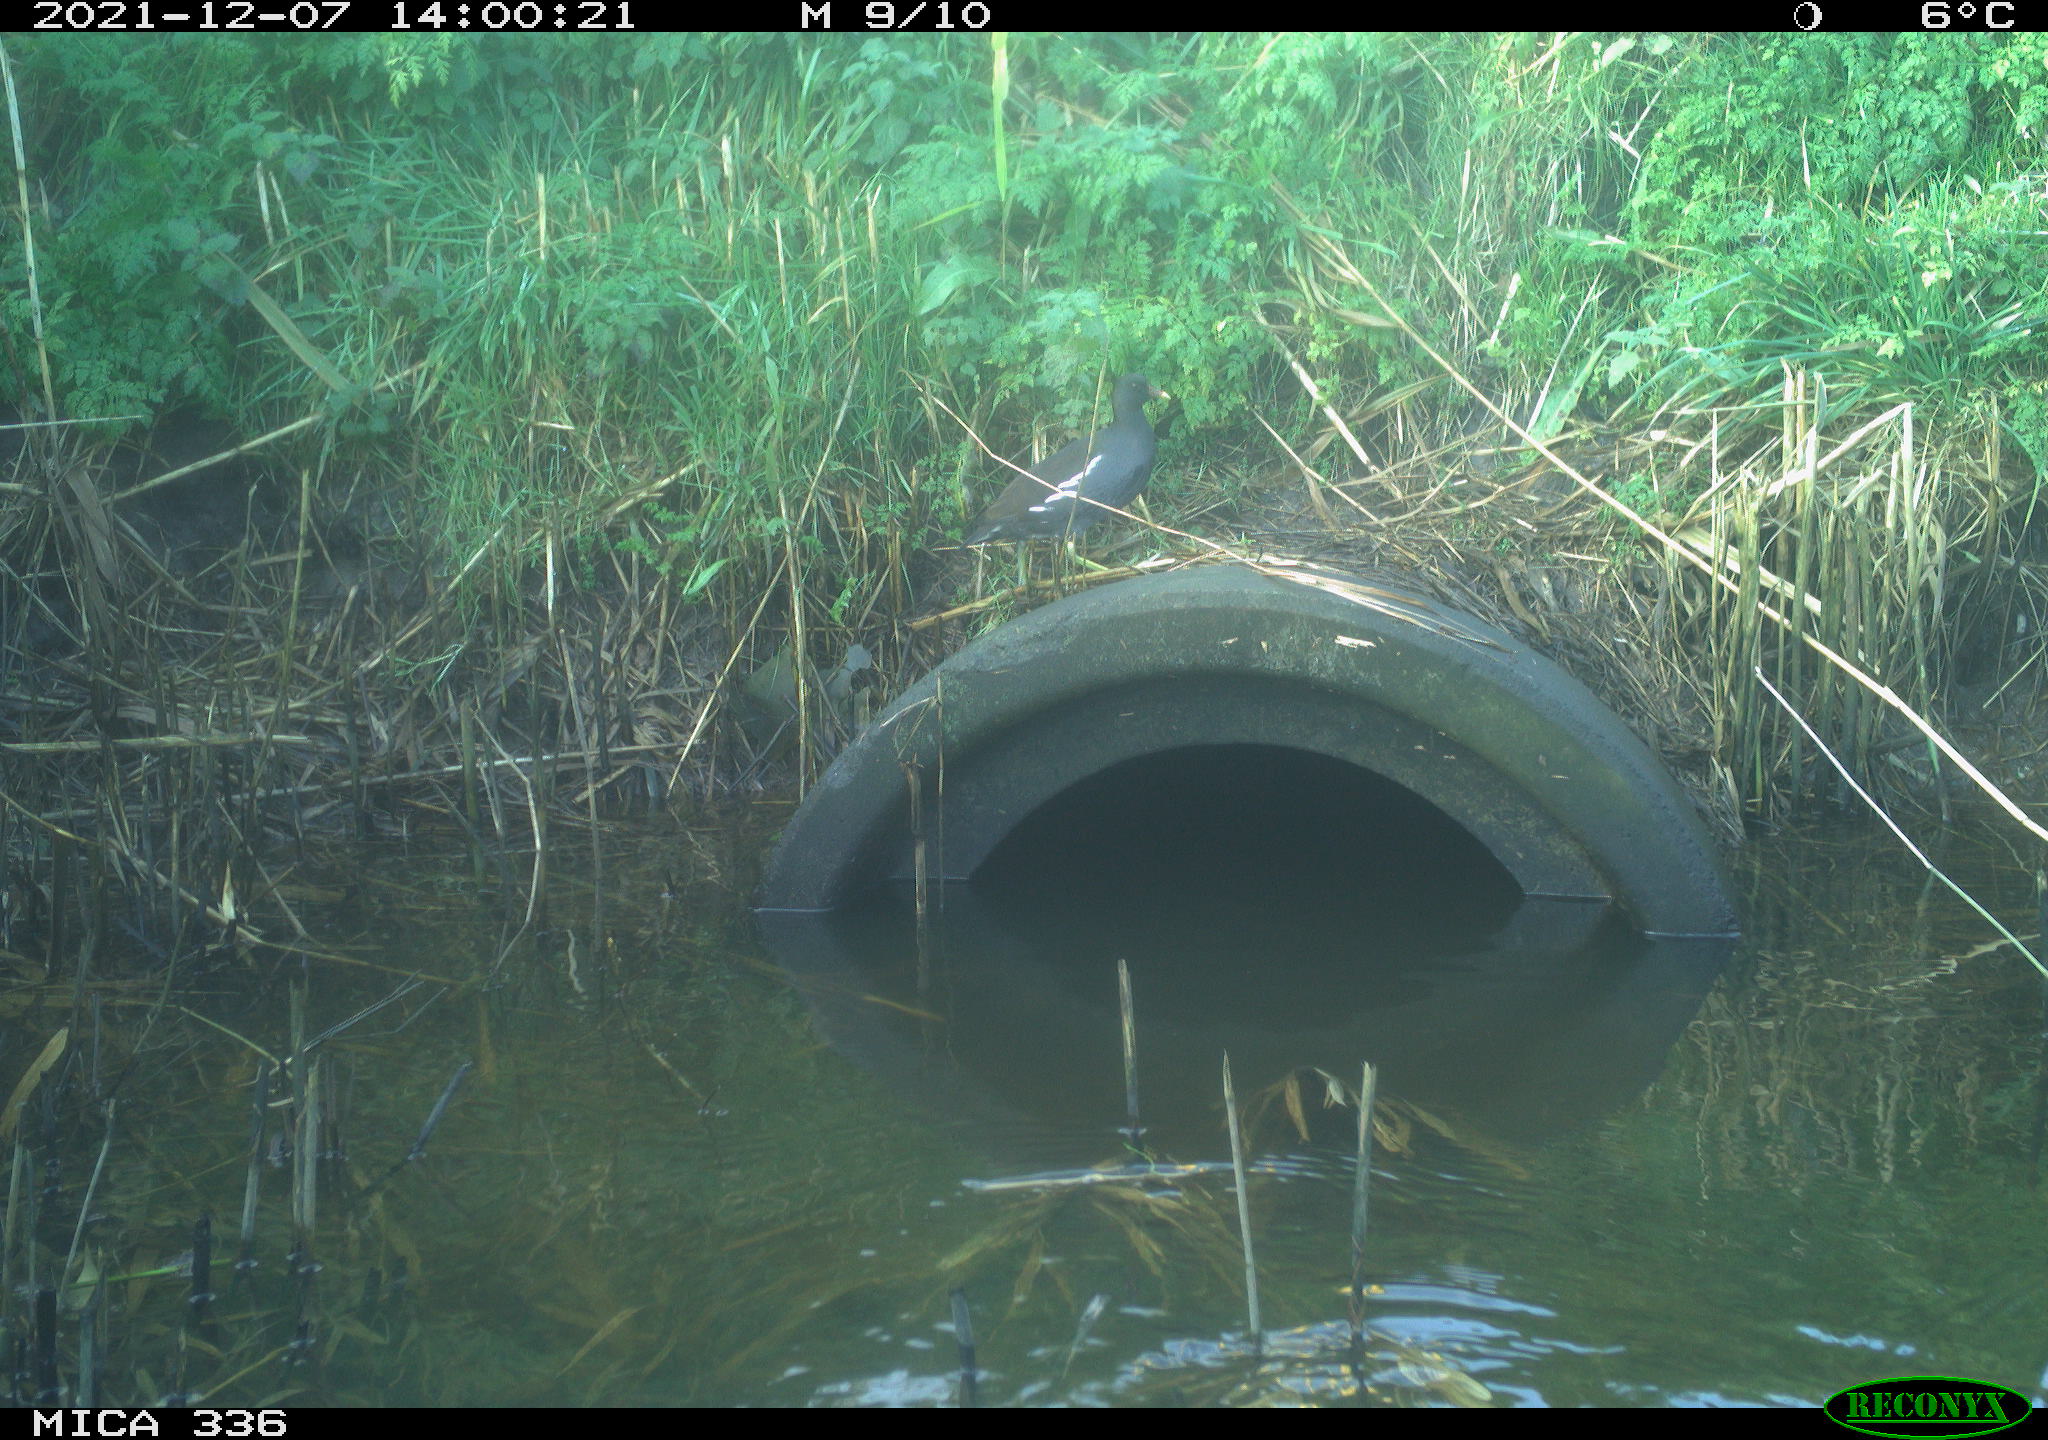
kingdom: Animalia
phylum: Chordata
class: Aves
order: Gruiformes
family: Rallidae
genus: Gallinula
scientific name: Gallinula chloropus
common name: Common moorhen
